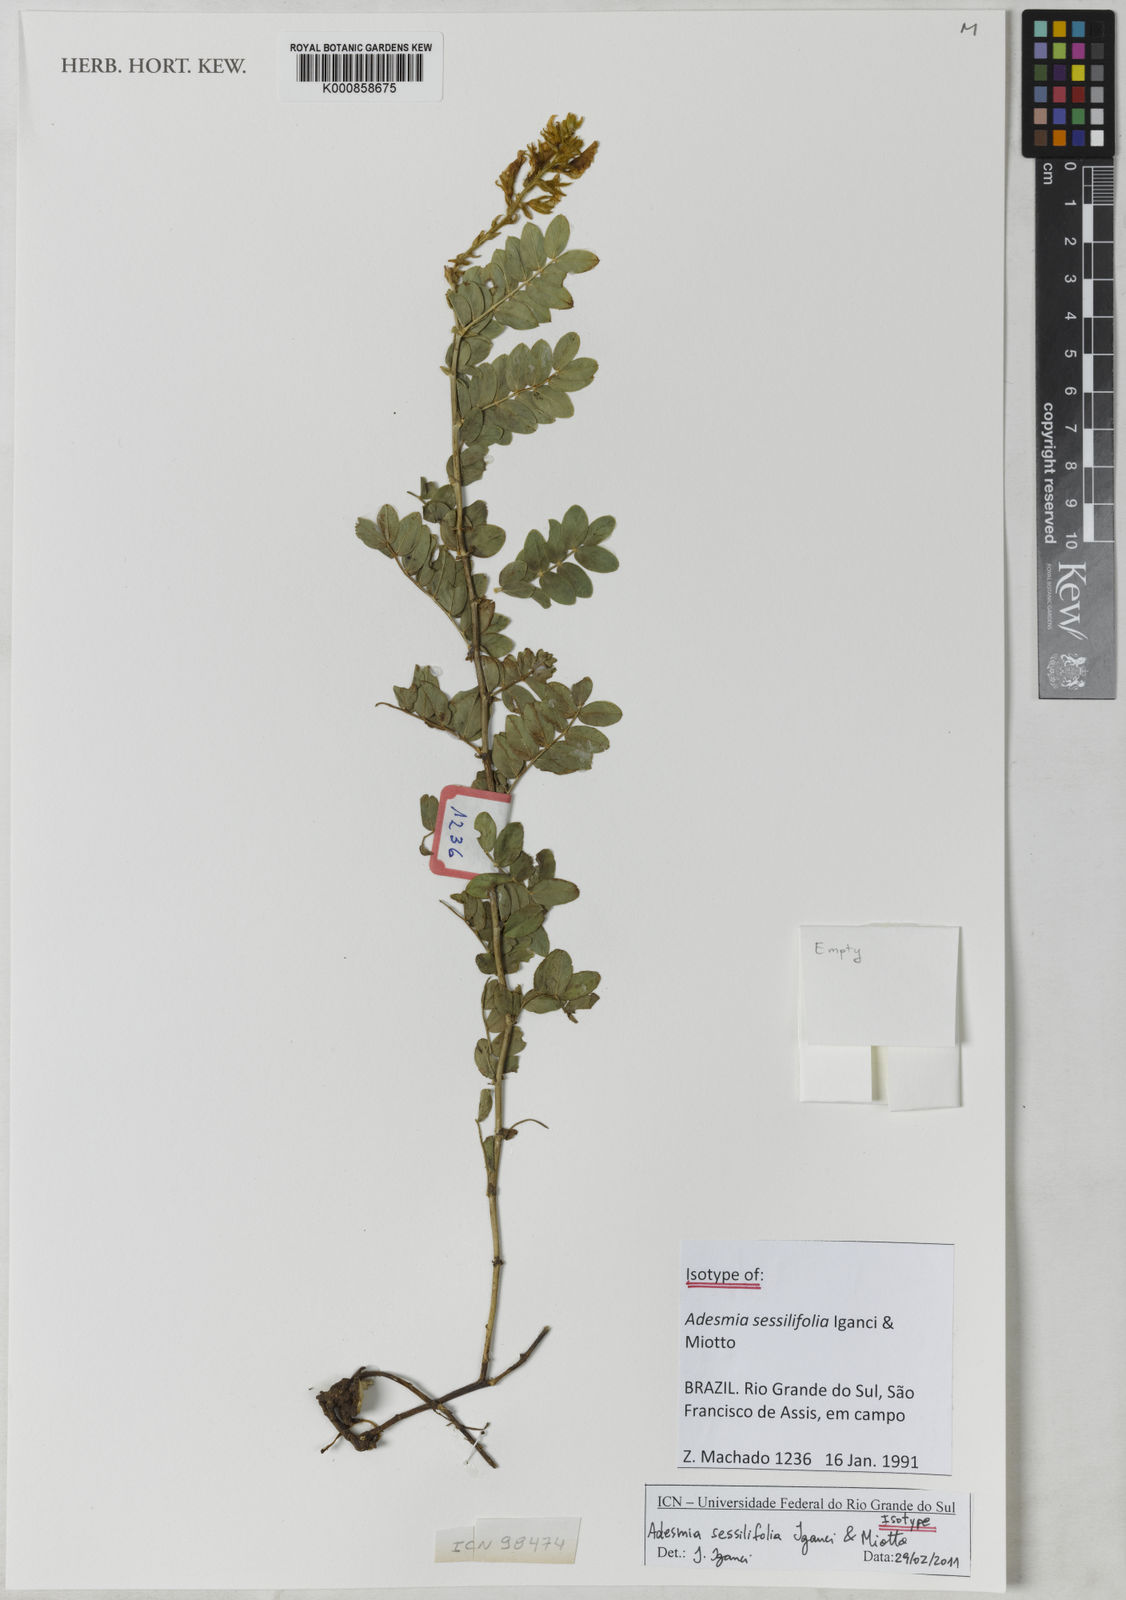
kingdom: Plantae
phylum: Tracheophyta
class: Magnoliopsida
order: Fabales
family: Fabaceae
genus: Adesmia
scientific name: Adesmia sessilifolia
